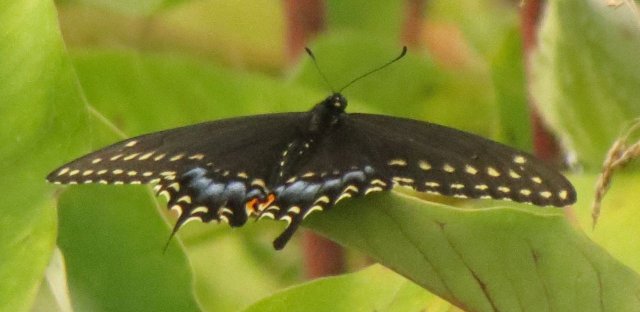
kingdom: Animalia
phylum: Arthropoda
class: Insecta
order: Lepidoptera
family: Papilionidae
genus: Papilio
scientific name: Papilio polyxenes
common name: Black Swallowtail
